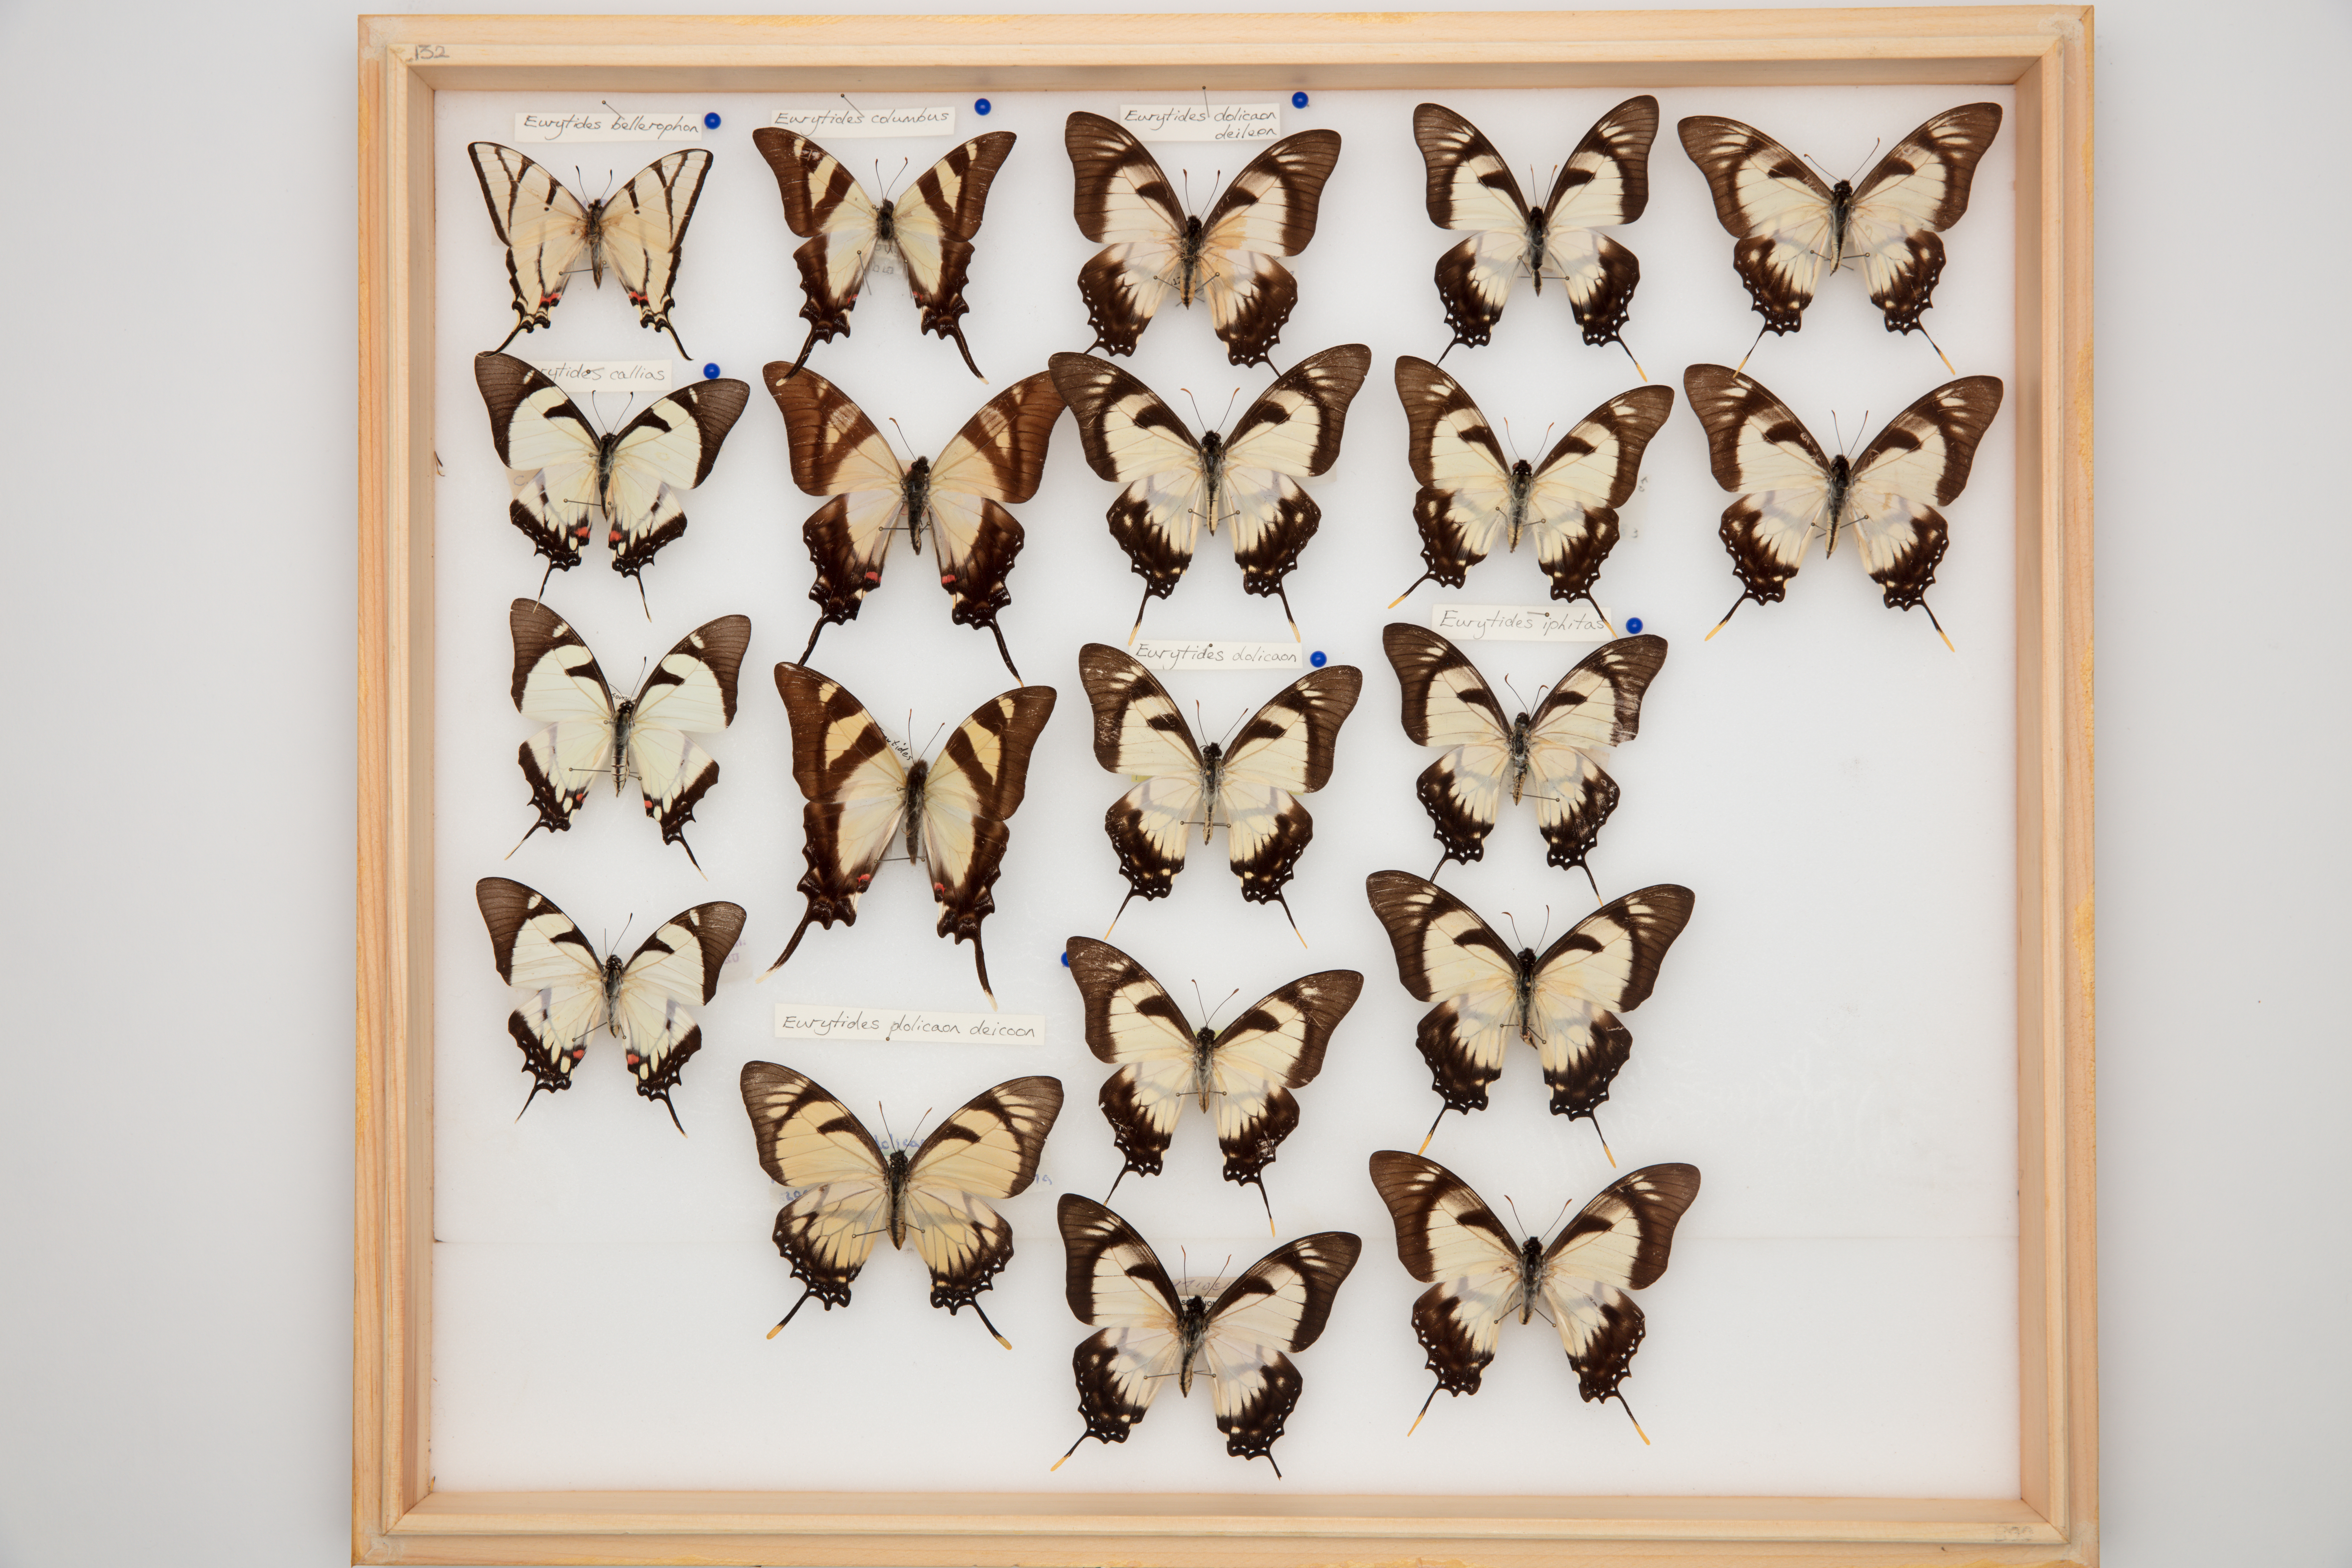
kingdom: Animalia
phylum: Arthropoda
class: Insecta
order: Lepidoptera
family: Papilionidae
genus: Eurytides
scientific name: Eurytides callias
